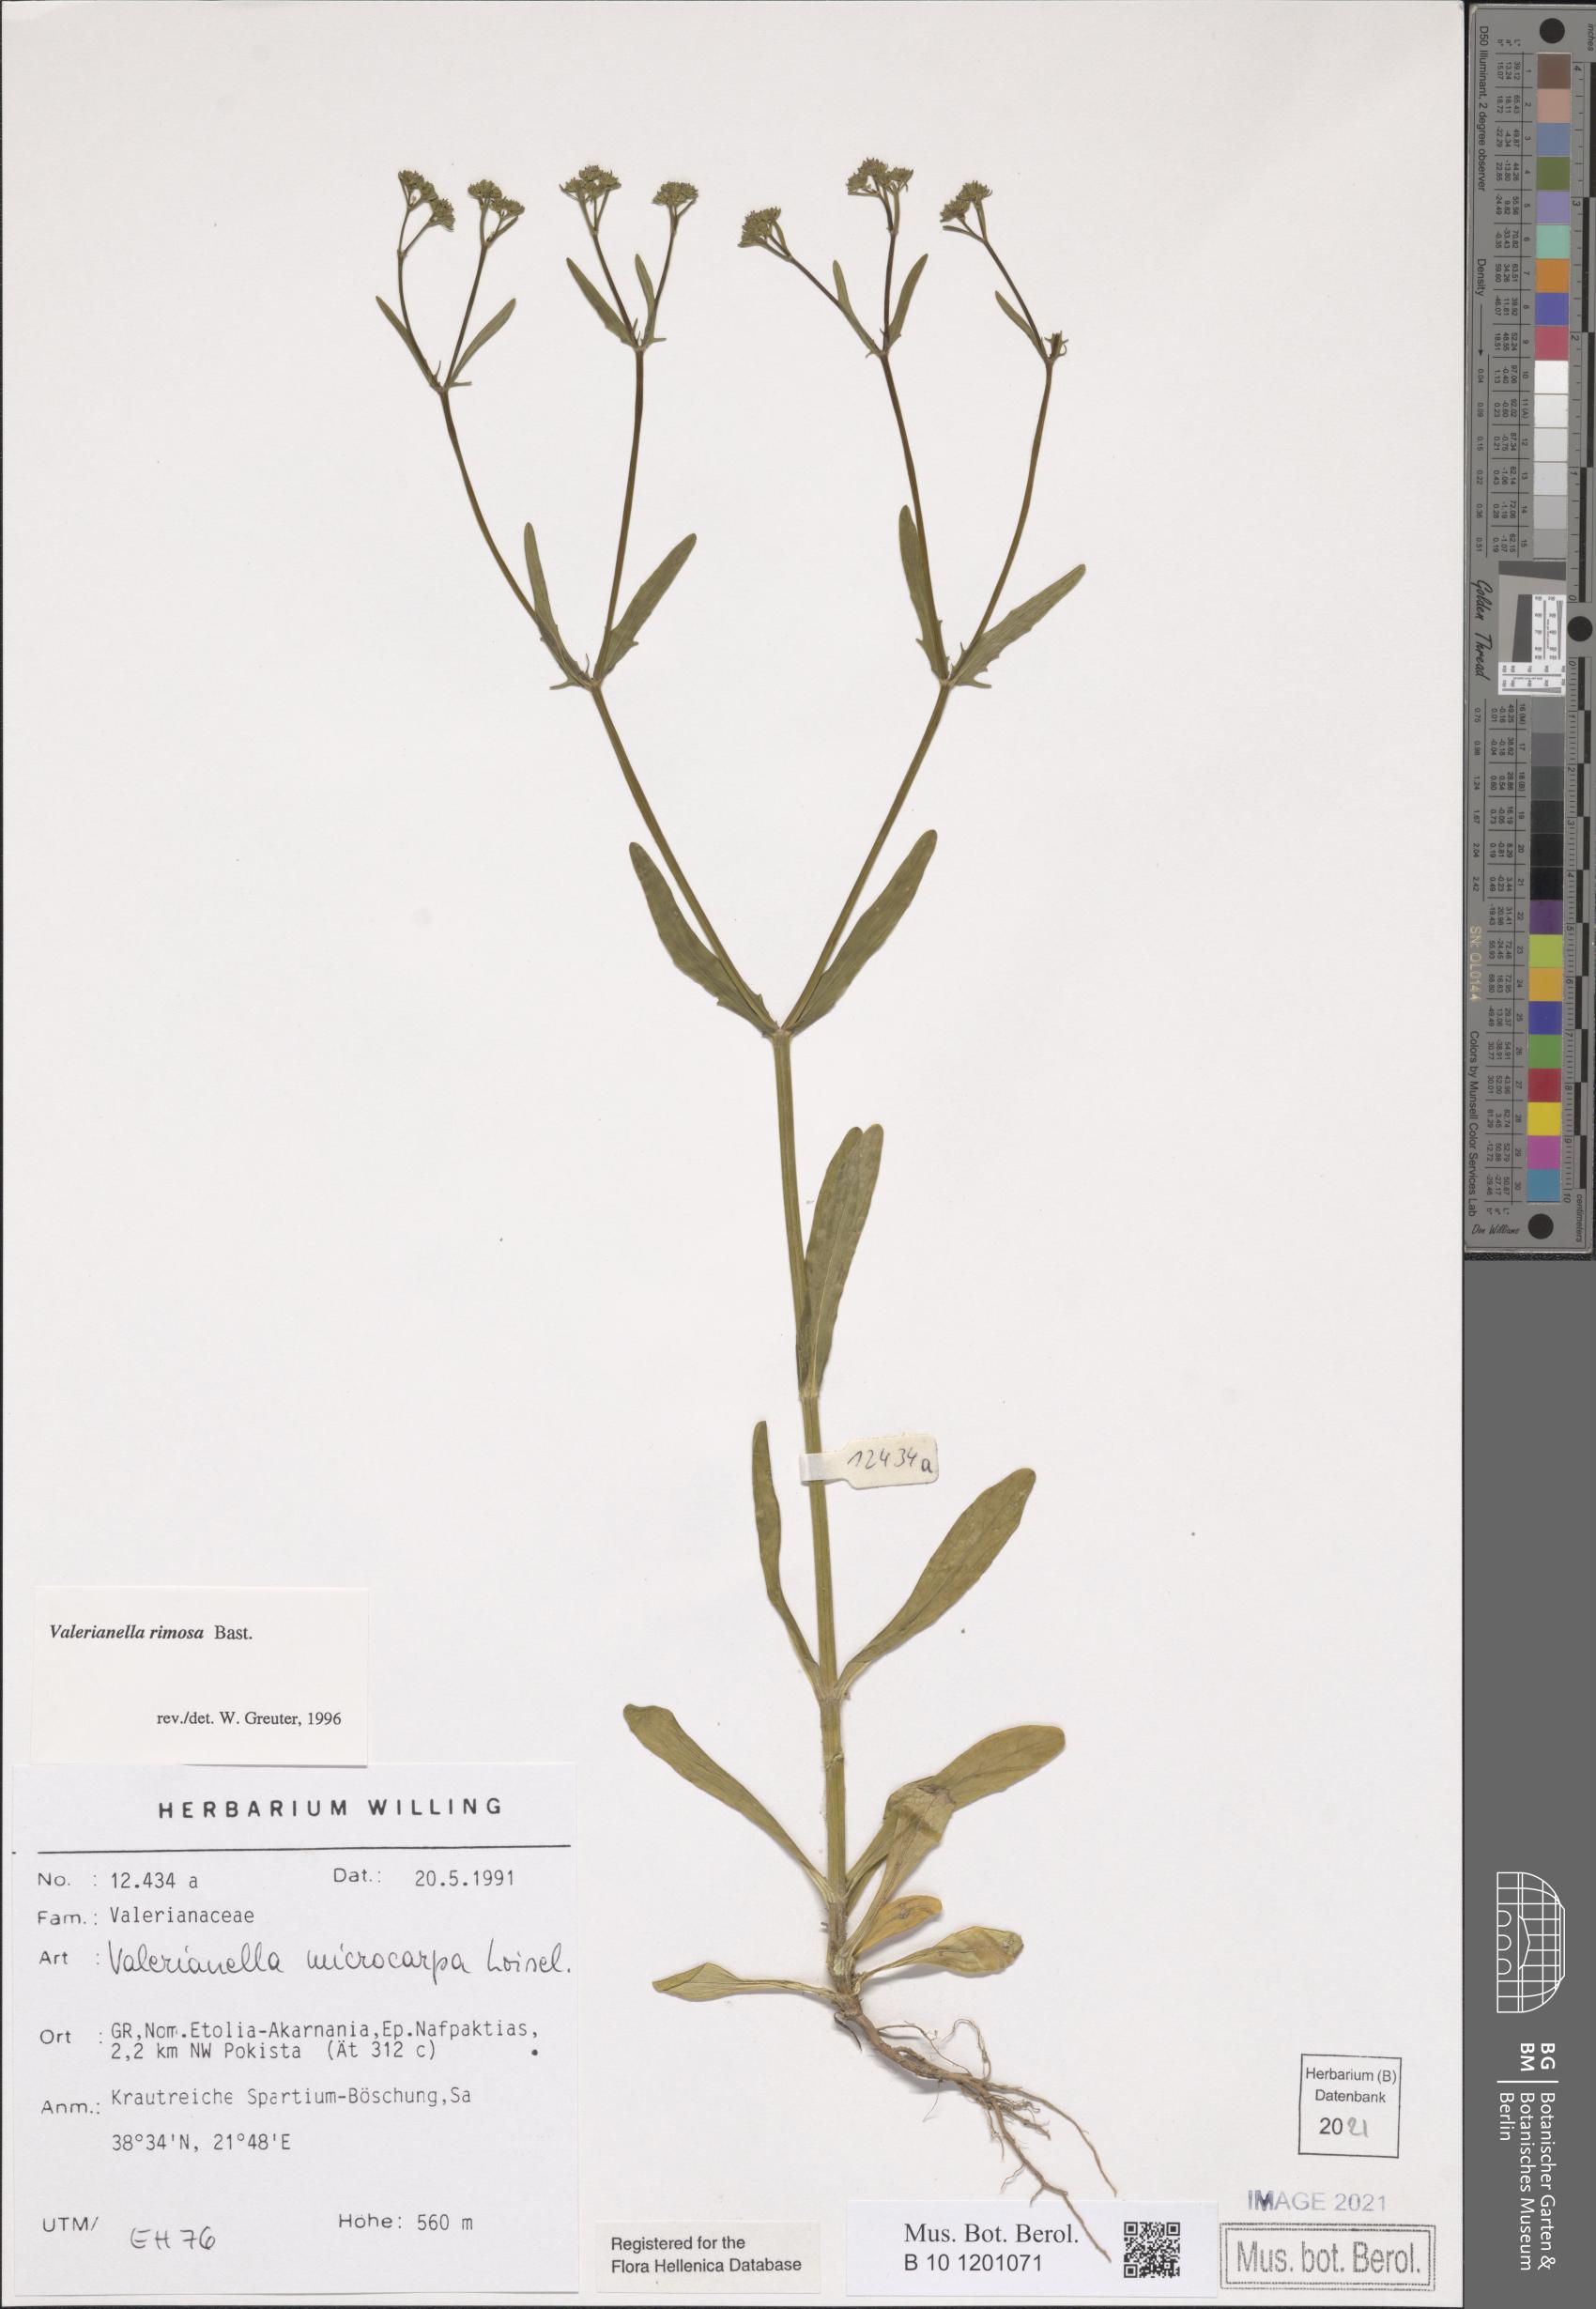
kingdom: Plantae
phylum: Tracheophyta
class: Magnoliopsida
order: Dipsacales
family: Caprifoliaceae
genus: Valerianella
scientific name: Valerianella rimosa
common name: Broad-fruited cornsalad
